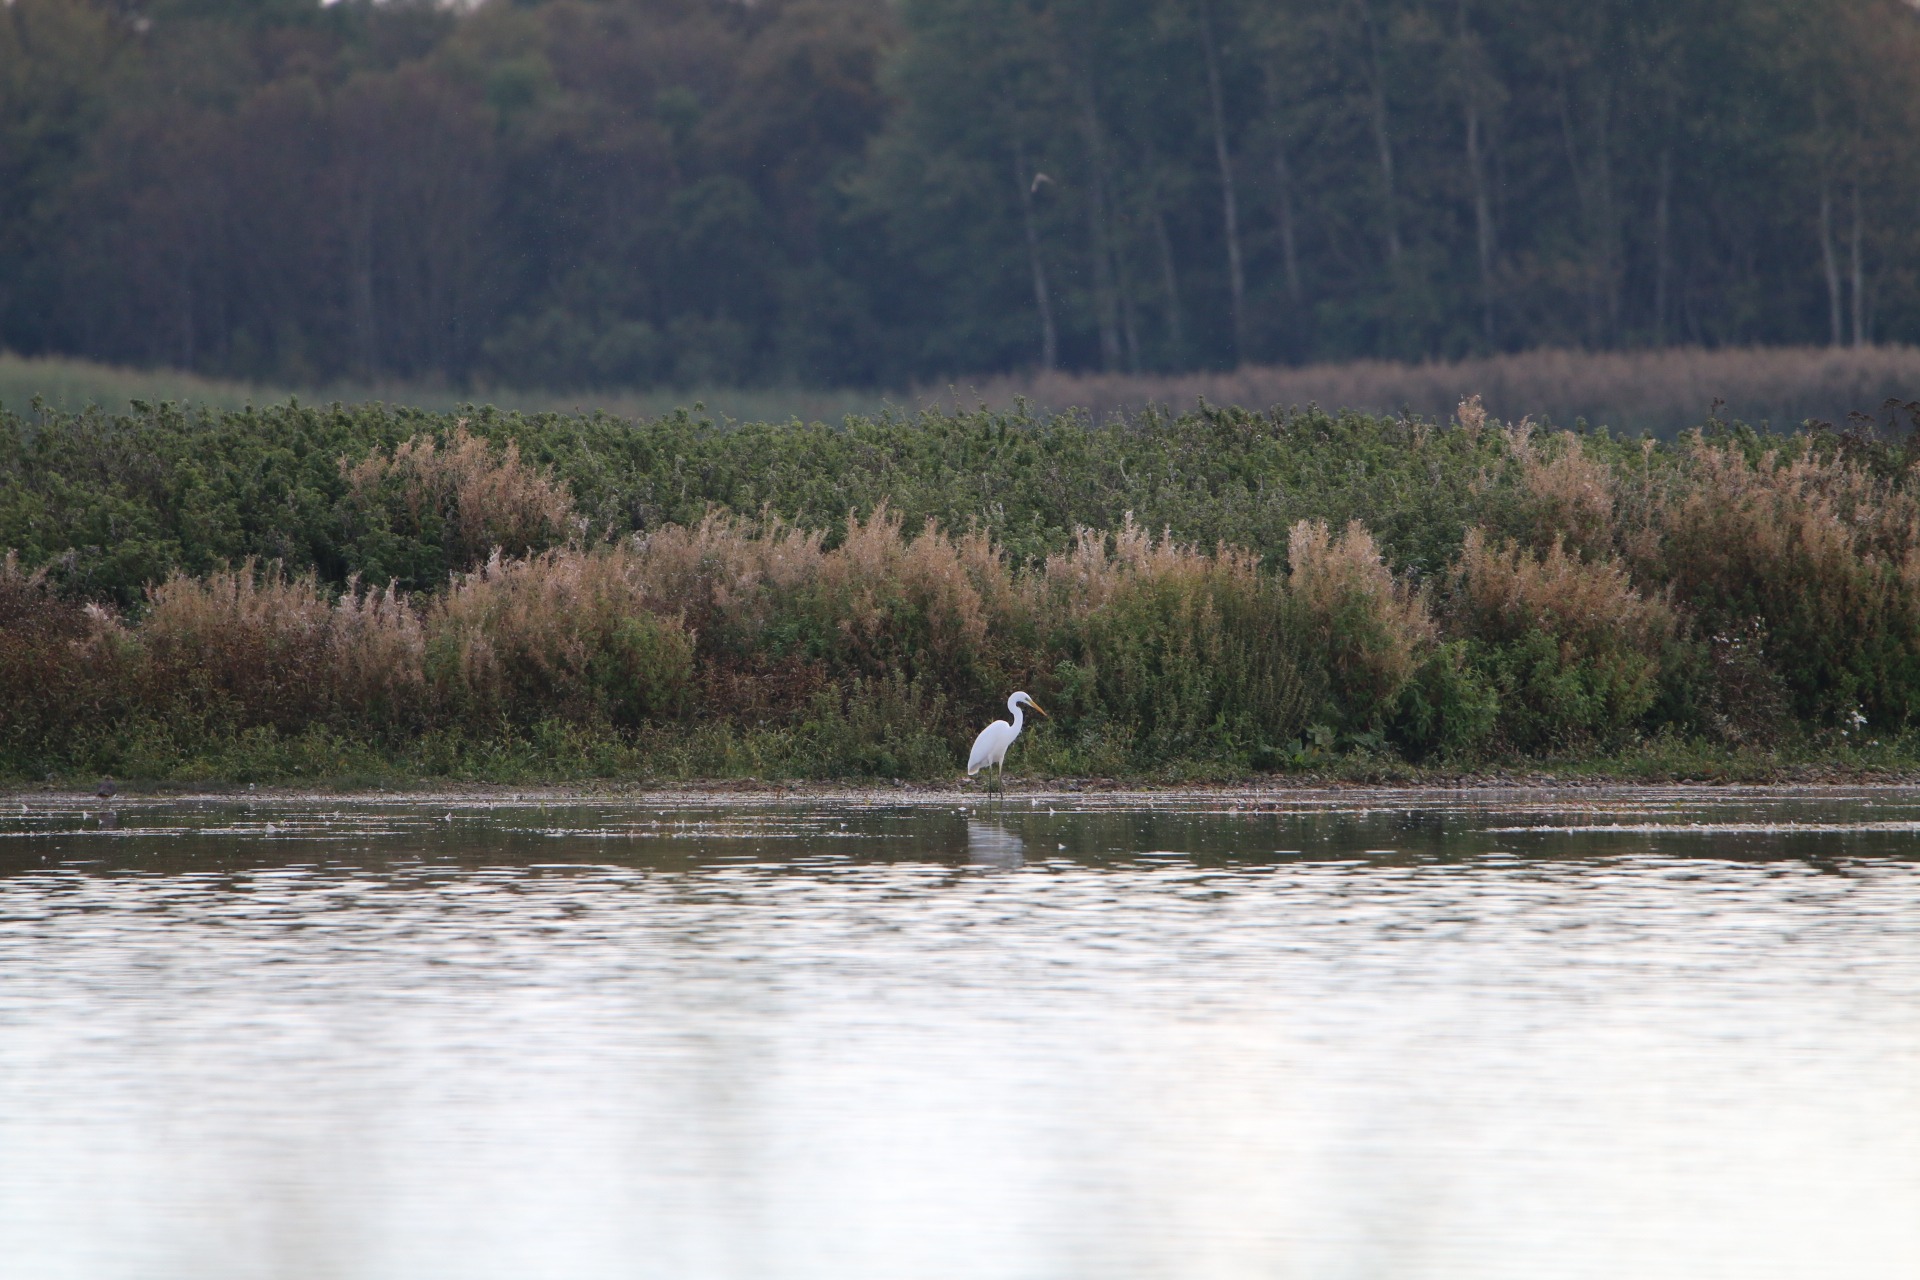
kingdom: Animalia
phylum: Chordata
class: Aves
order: Pelecaniformes
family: Ardeidae
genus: Ardea
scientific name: Ardea alba
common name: Sølvhejre
